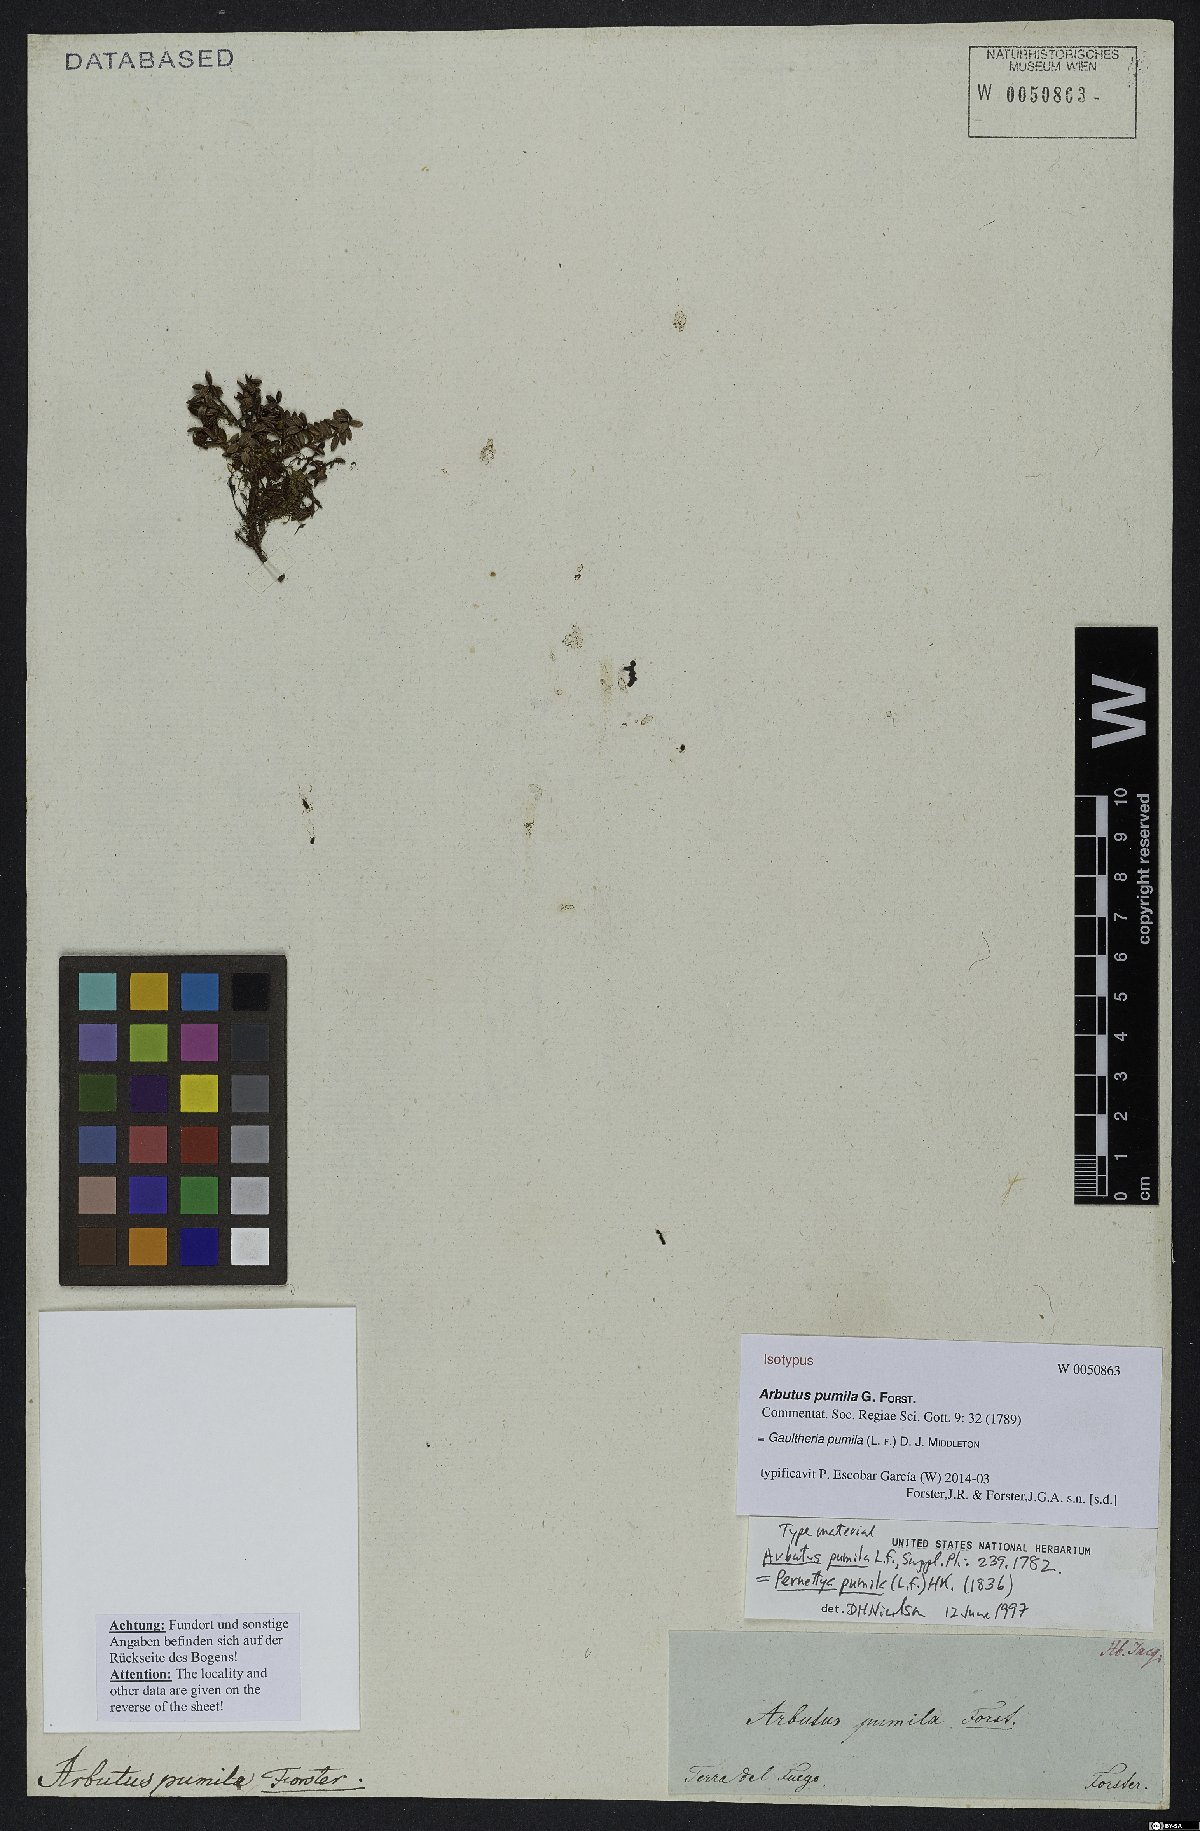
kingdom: Plantae
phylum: Tracheophyta
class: Magnoliopsida
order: Ericales
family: Ericaceae
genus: Gaultheria
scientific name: Gaultheria pumila
